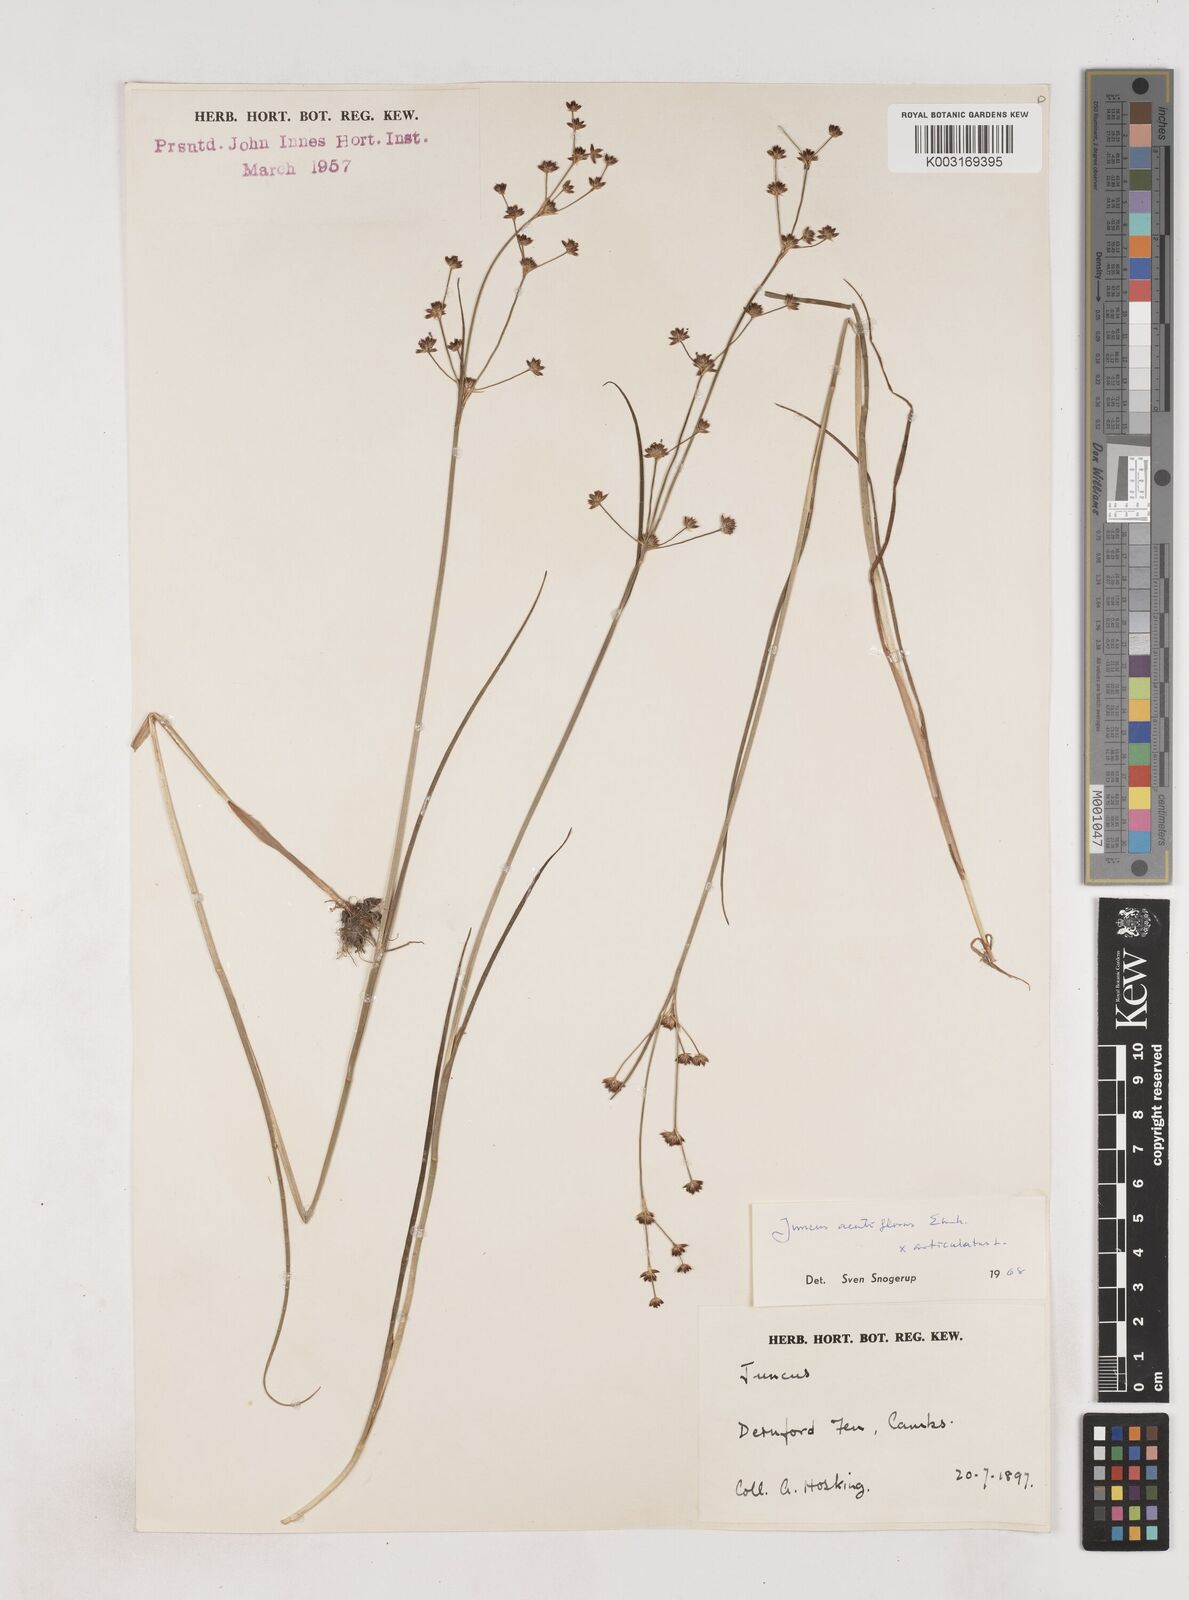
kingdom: Plantae
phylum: Tracheophyta
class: Liliopsida
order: Poales
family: Juncaceae
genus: Juncus
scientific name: Juncus acutiflorus
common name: Sharp-flowered rush
